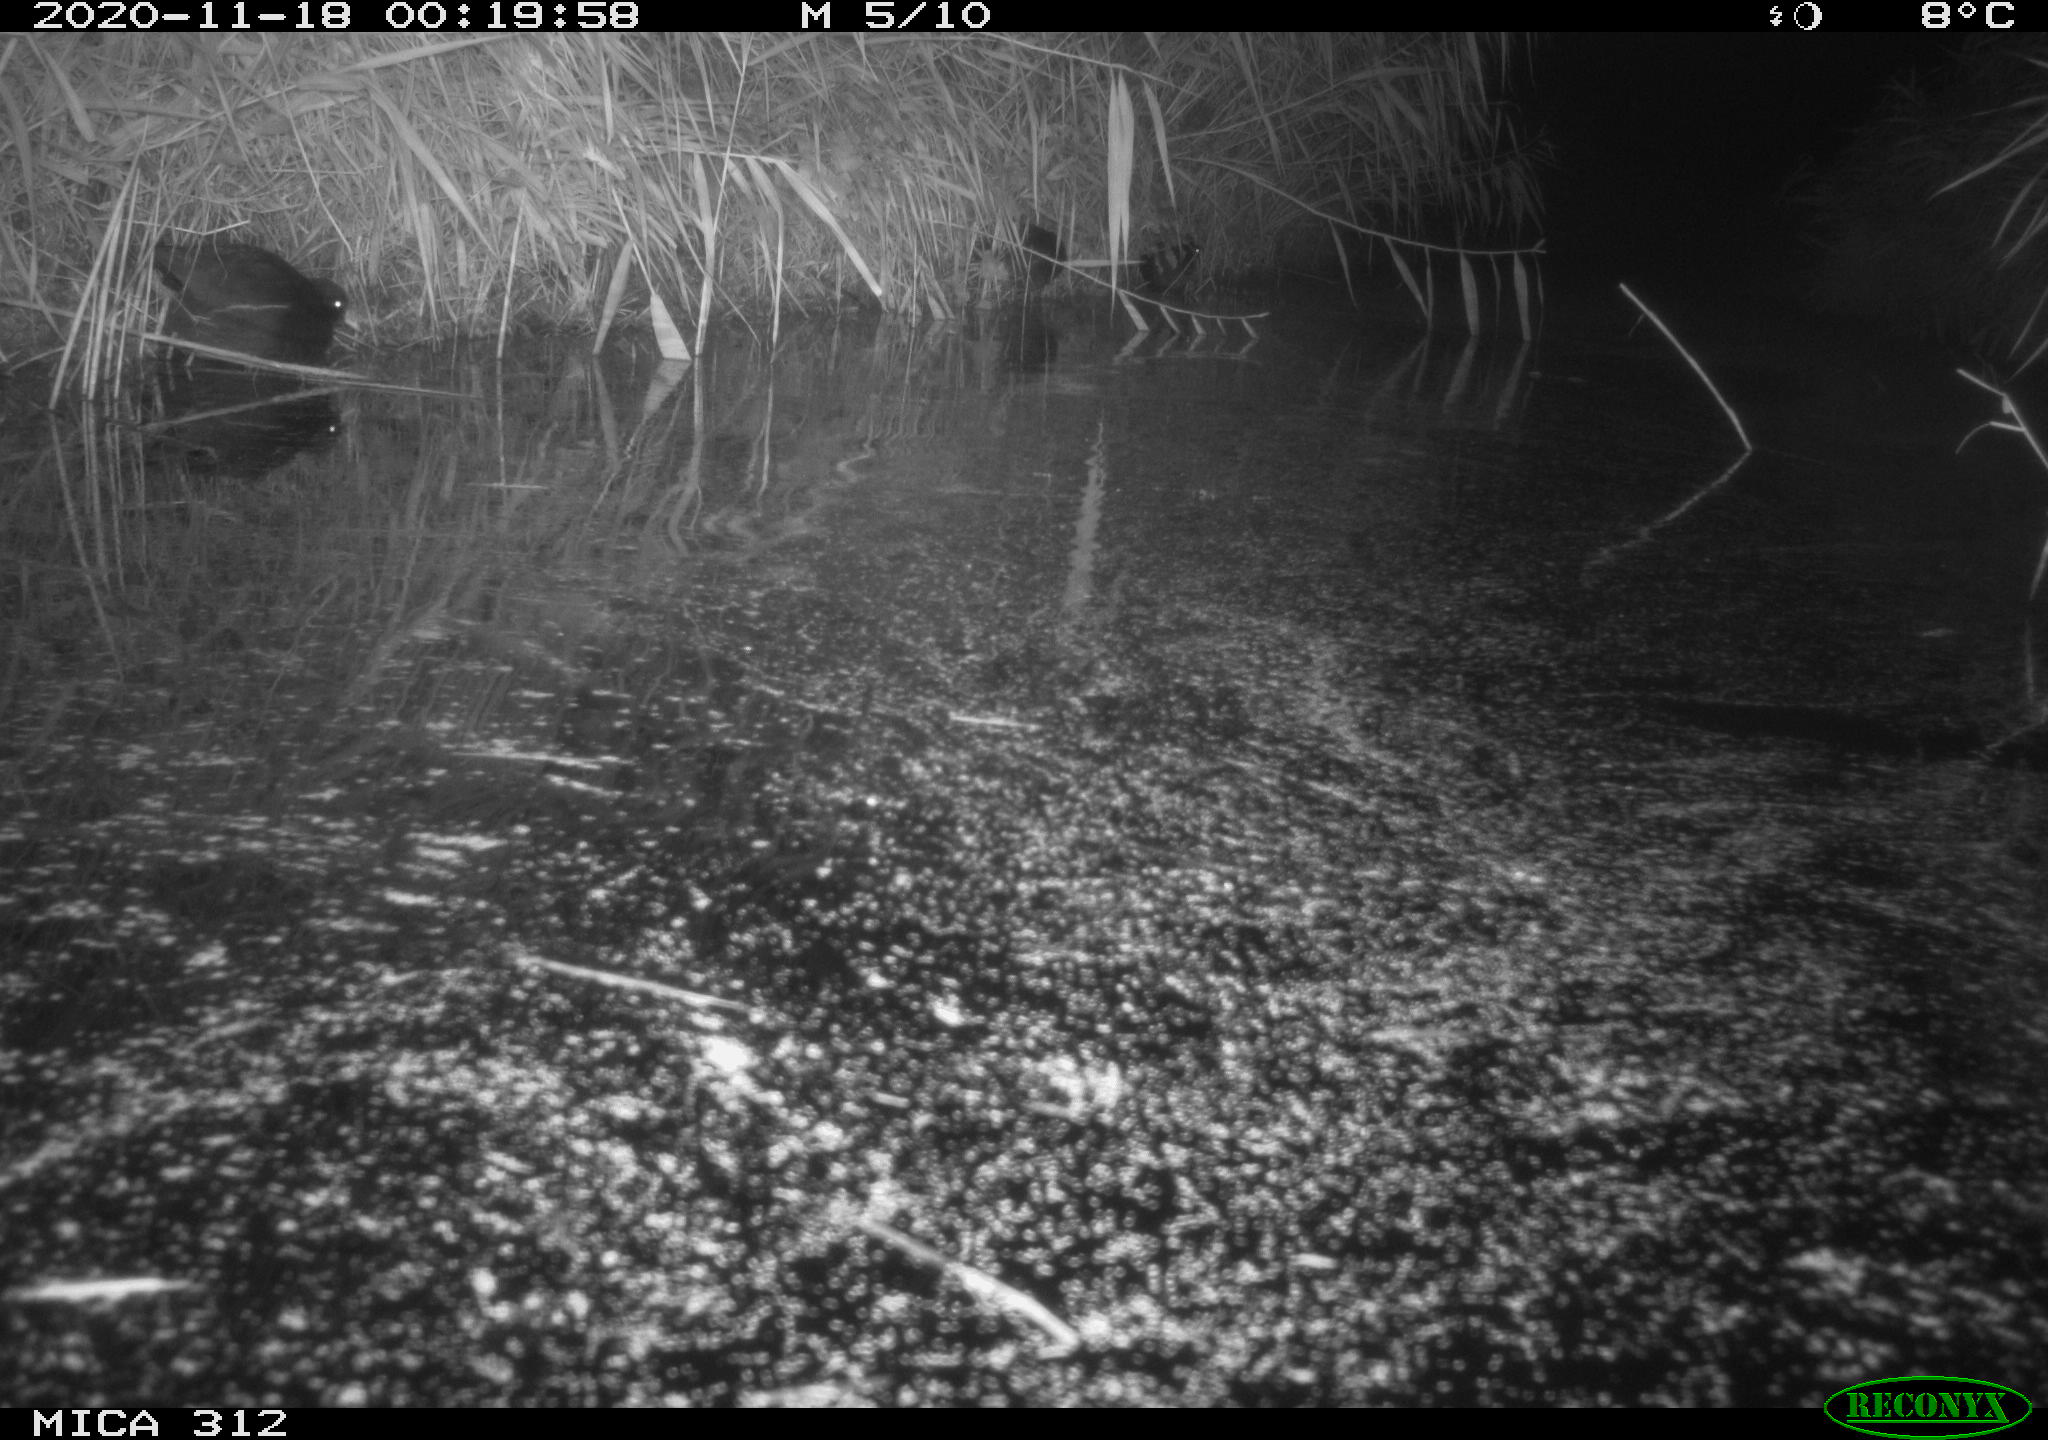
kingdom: Animalia
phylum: Chordata
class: Mammalia
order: Rodentia
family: Muridae
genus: Rattus
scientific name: Rattus norvegicus
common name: Brown rat
